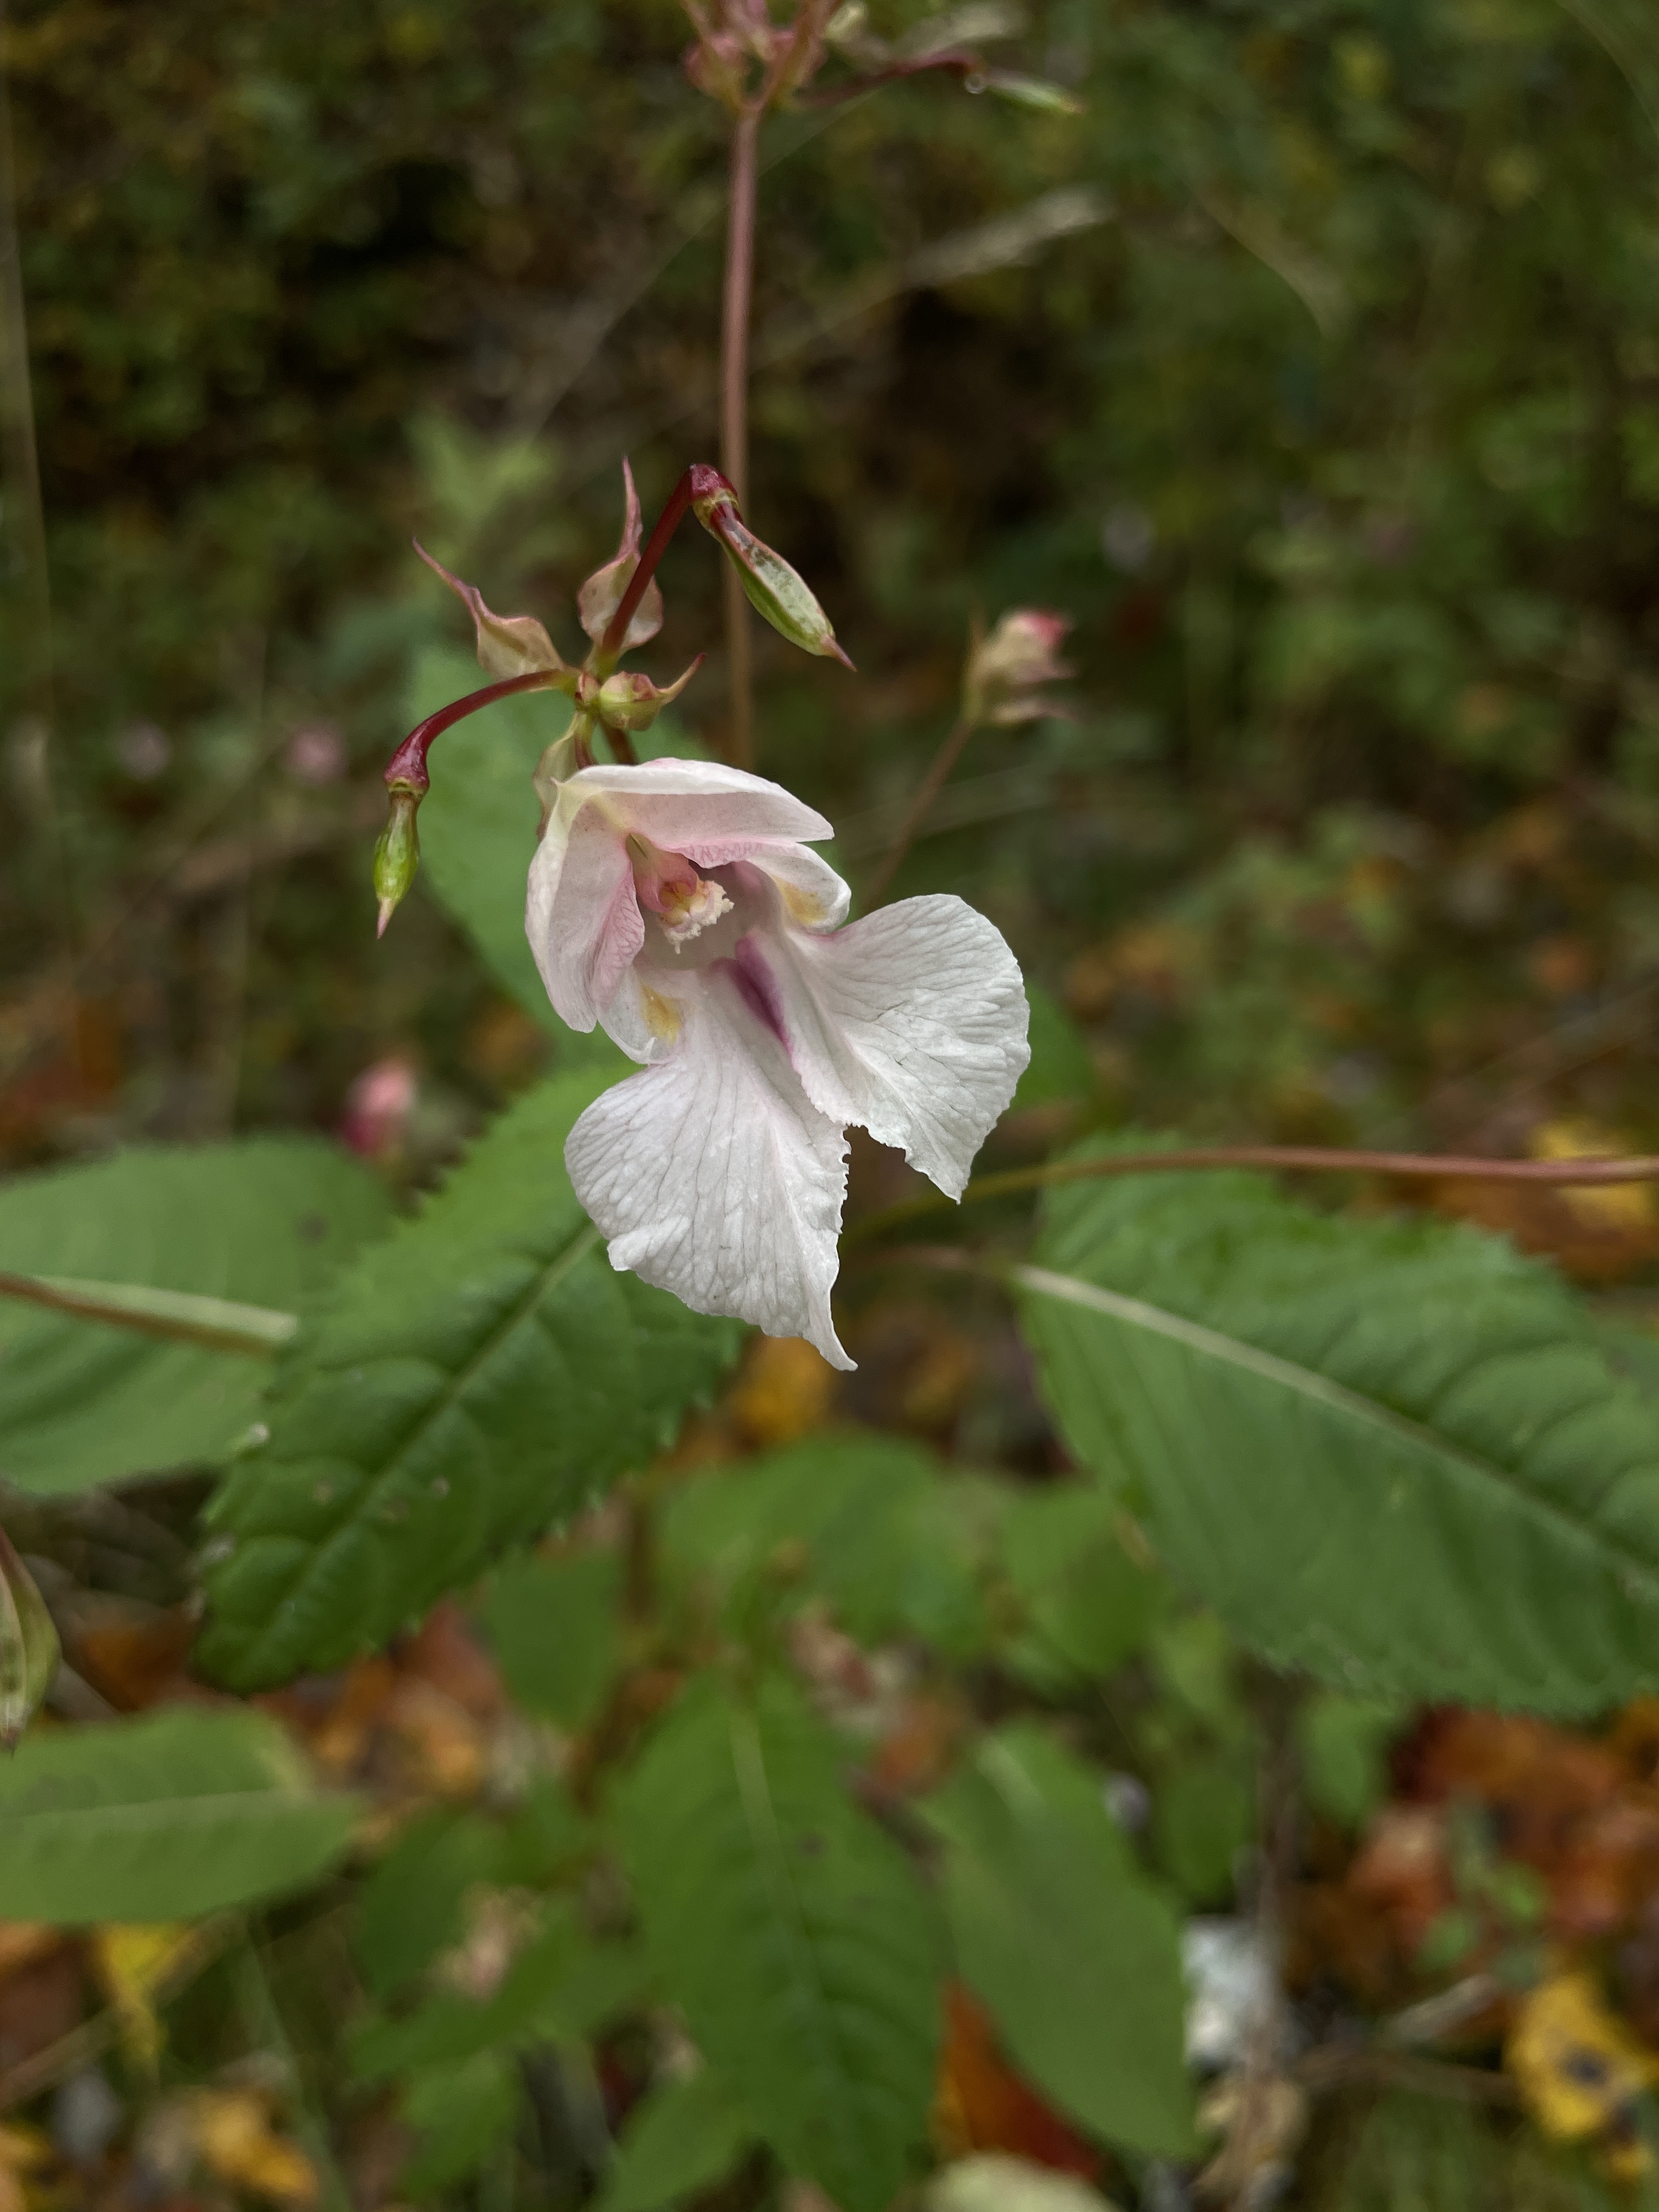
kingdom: Plantae
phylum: Tracheophyta
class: Magnoliopsida
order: Ericales
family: Balsaminaceae
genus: Impatiens
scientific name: Impatiens glandulifera
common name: Himalayan balsam
